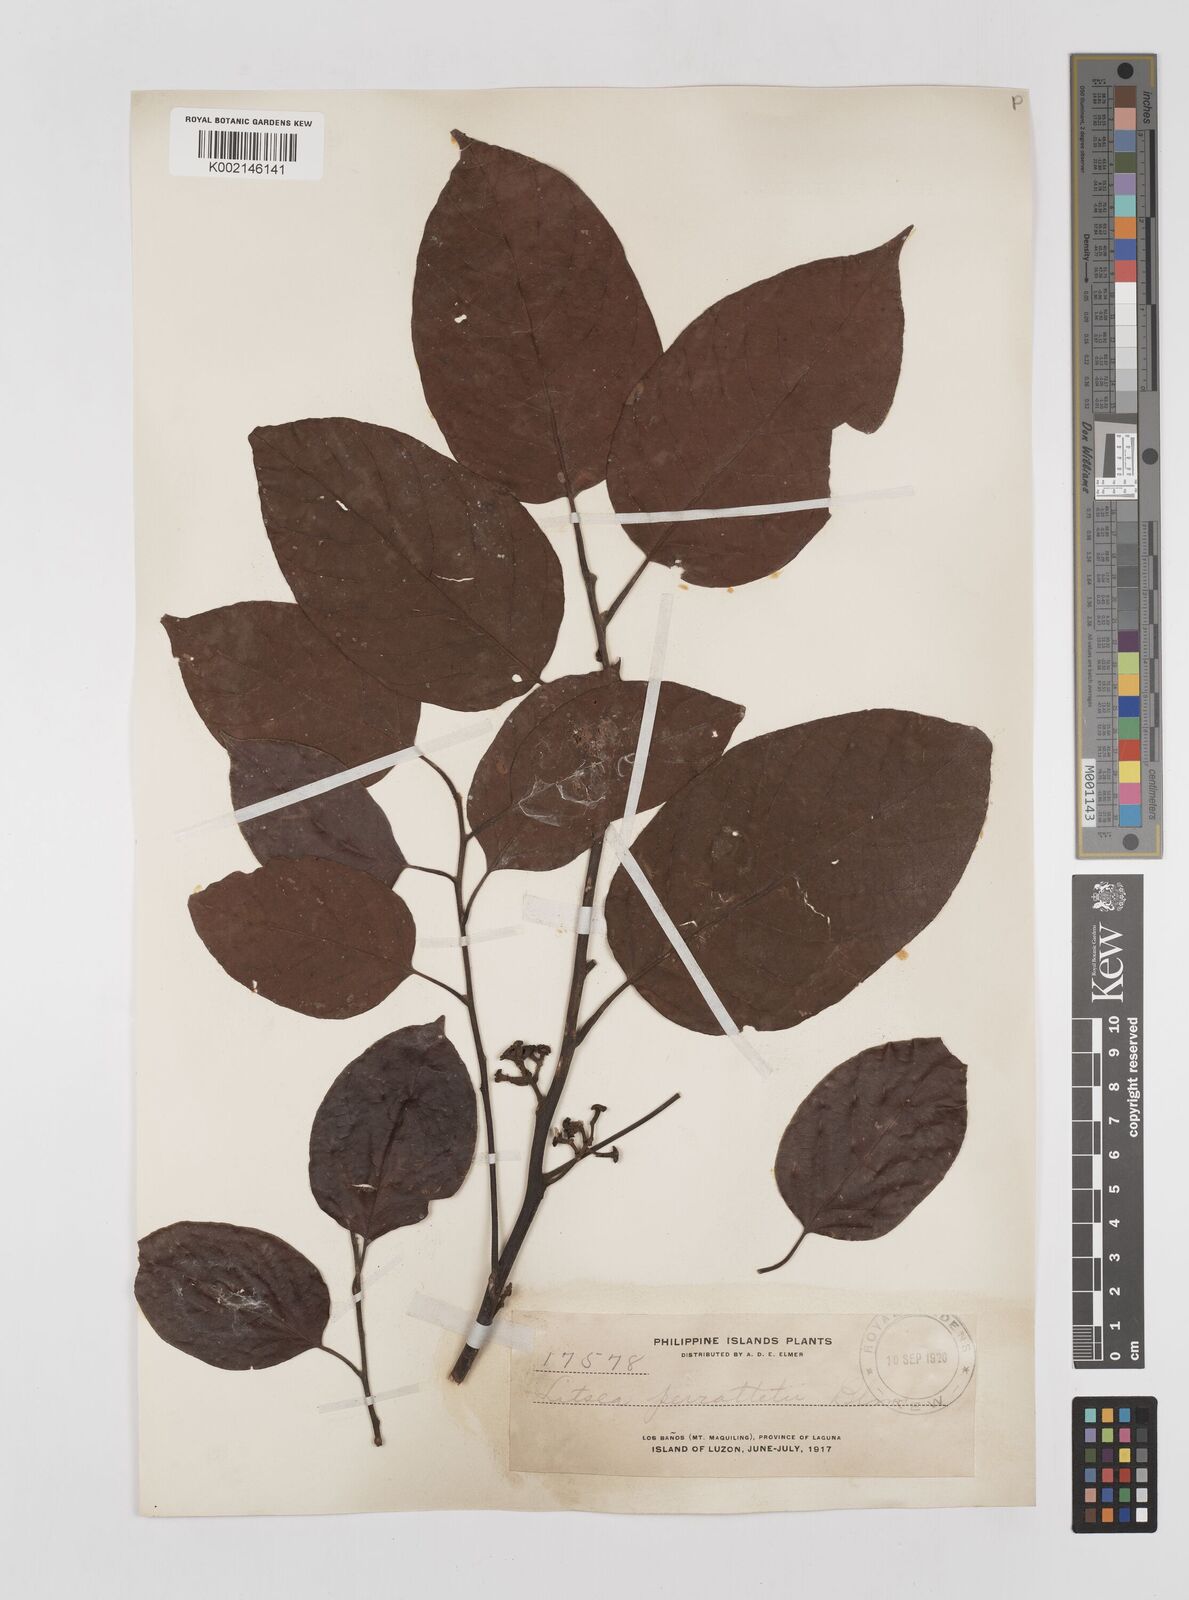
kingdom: Plantae
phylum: Tracheophyta
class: Magnoliopsida
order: Laurales
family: Lauraceae
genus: Litsea
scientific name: Litsea cordata
